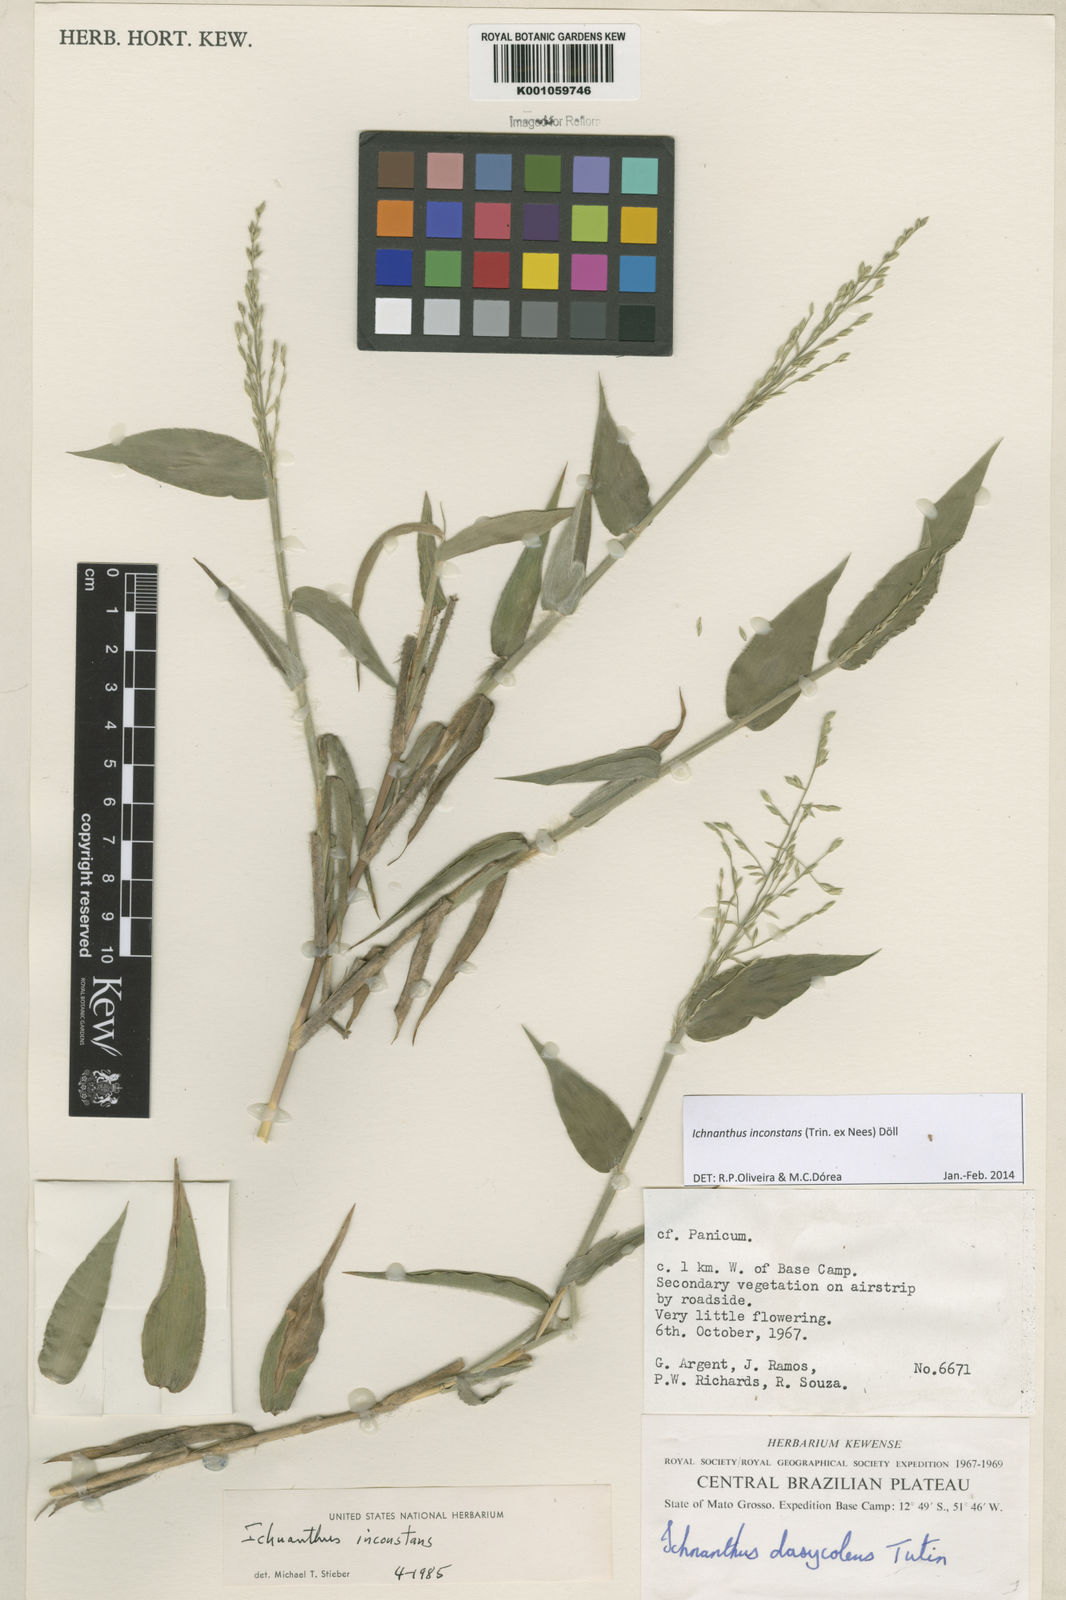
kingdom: Plantae
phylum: Tracheophyta
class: Liliopsida
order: Poales
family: Poaceae
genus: Ichnanthus
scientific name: Ichnanthus
